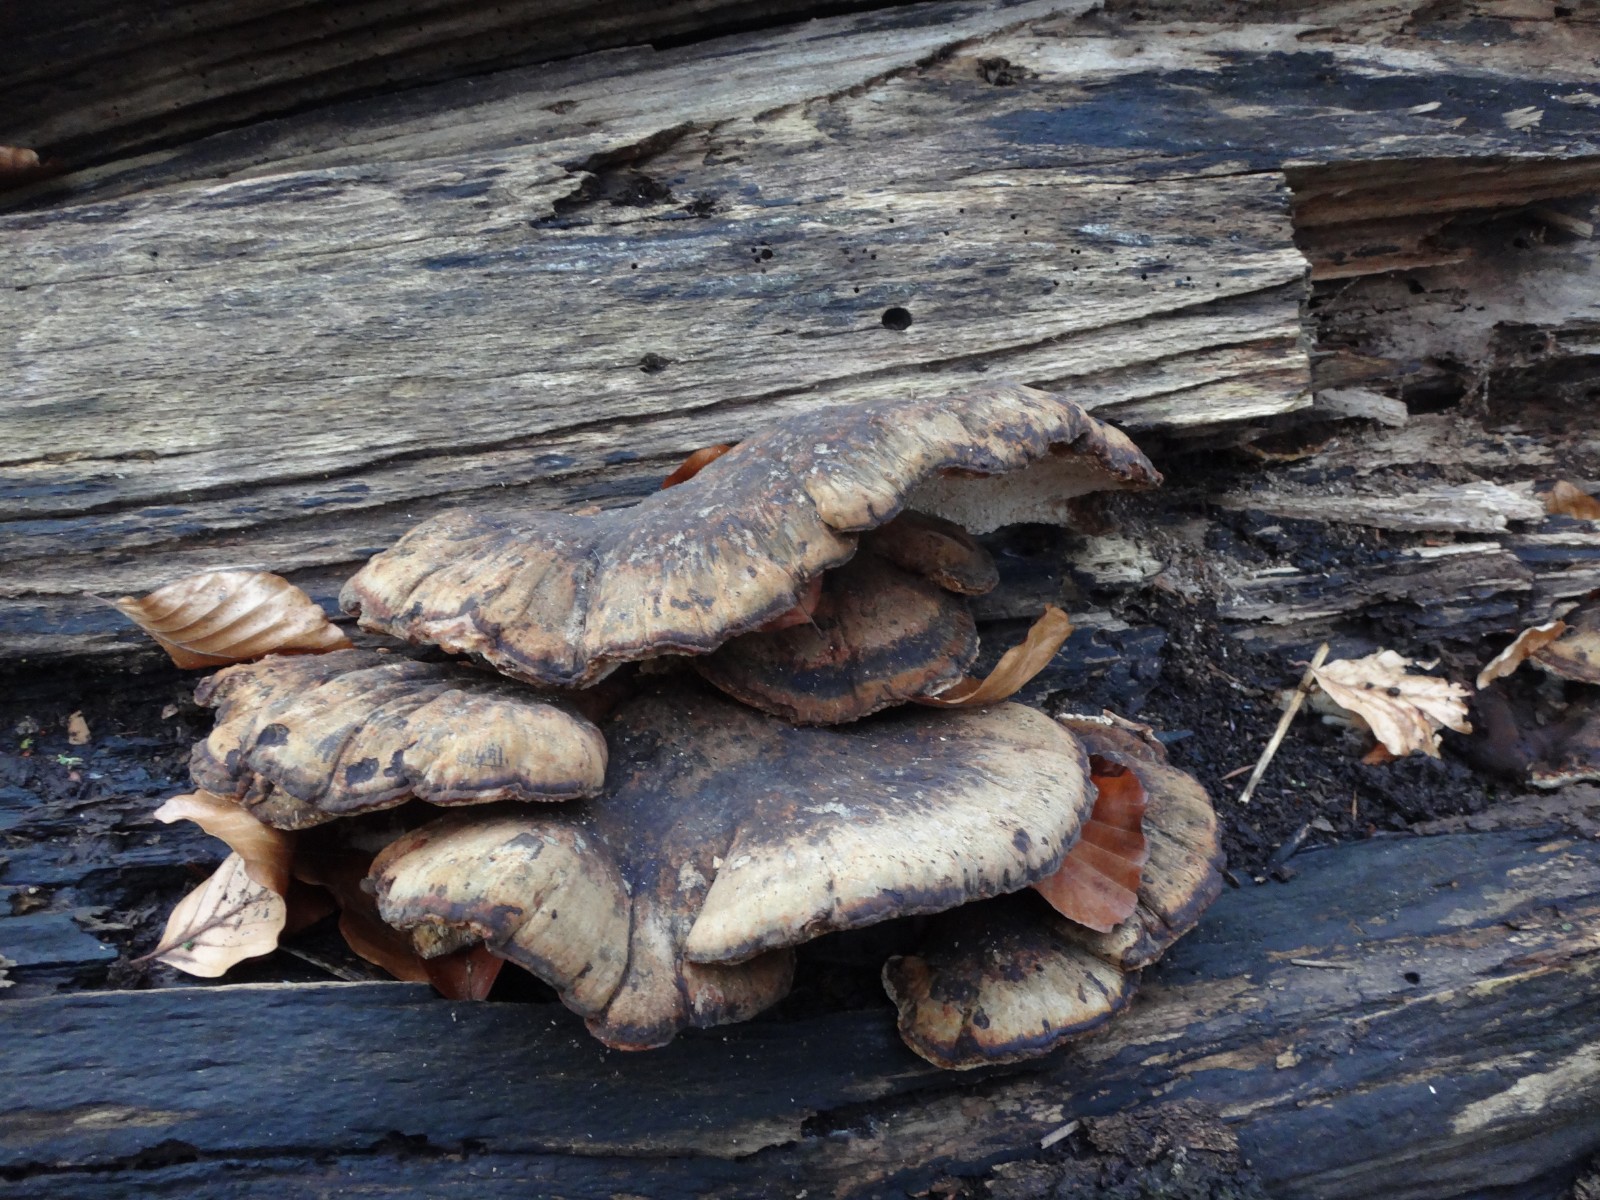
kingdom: Fungi
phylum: Basidiomycota
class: Agaricomycetes
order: Polyporales
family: Ischnodermataceae
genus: Ischnoderma
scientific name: Ischnoderma resinosum
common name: løv-tjæreporesvamp
